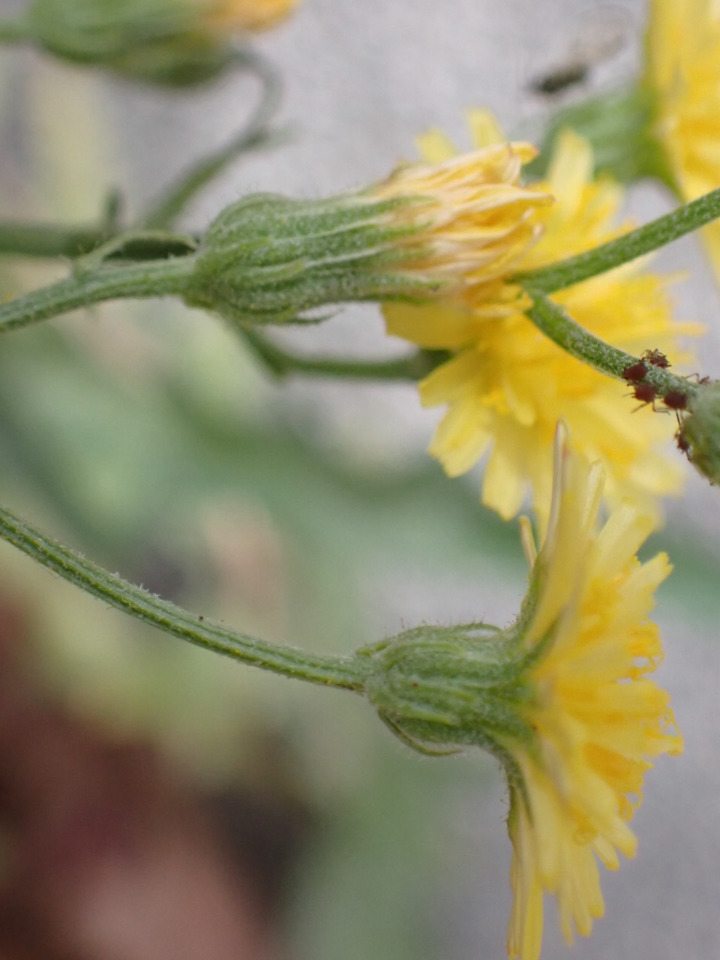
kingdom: Plantae
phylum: Tracheophyta
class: Magnoliopsida
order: Asterales
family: Asteraceae
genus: Crepis
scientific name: Crepis capillaris
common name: Grøn høgeskæg
